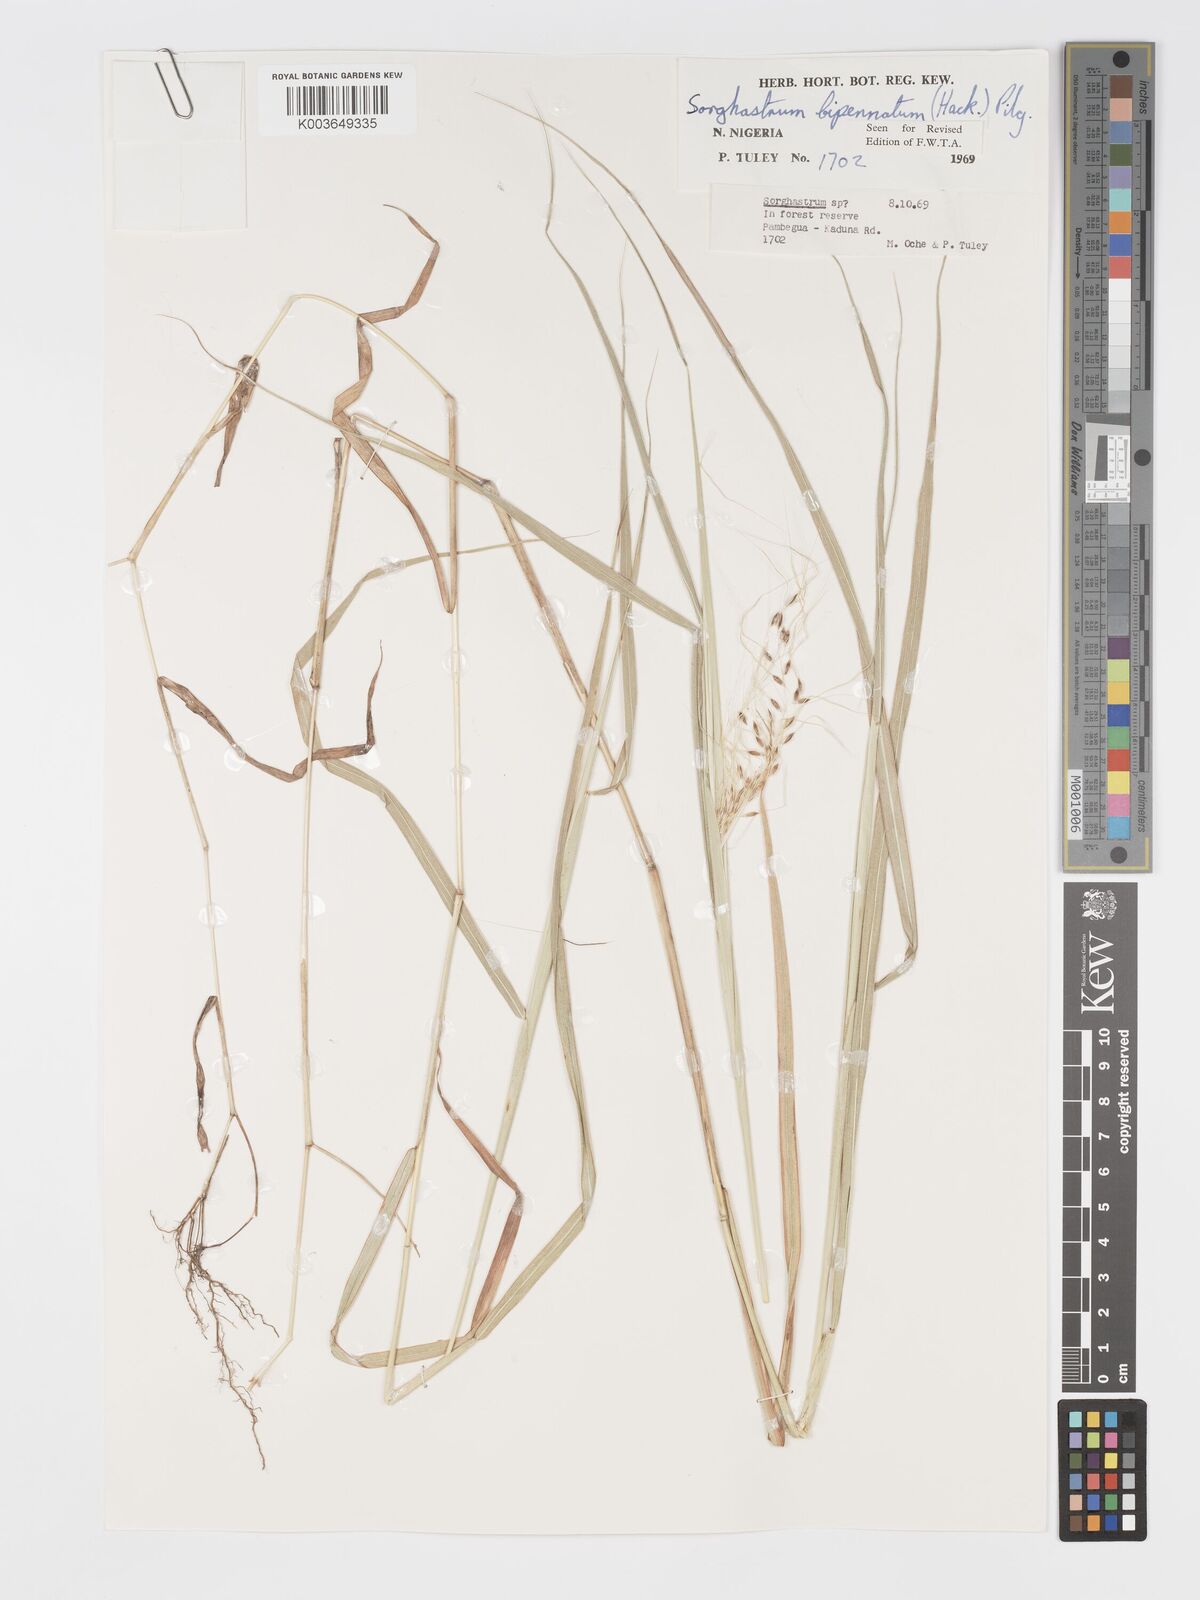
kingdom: Plantae
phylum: Tracheophyta
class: Liliopsida
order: Poales
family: Poaceae
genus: Sorghastrum
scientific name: Sorghastrum incompletum
